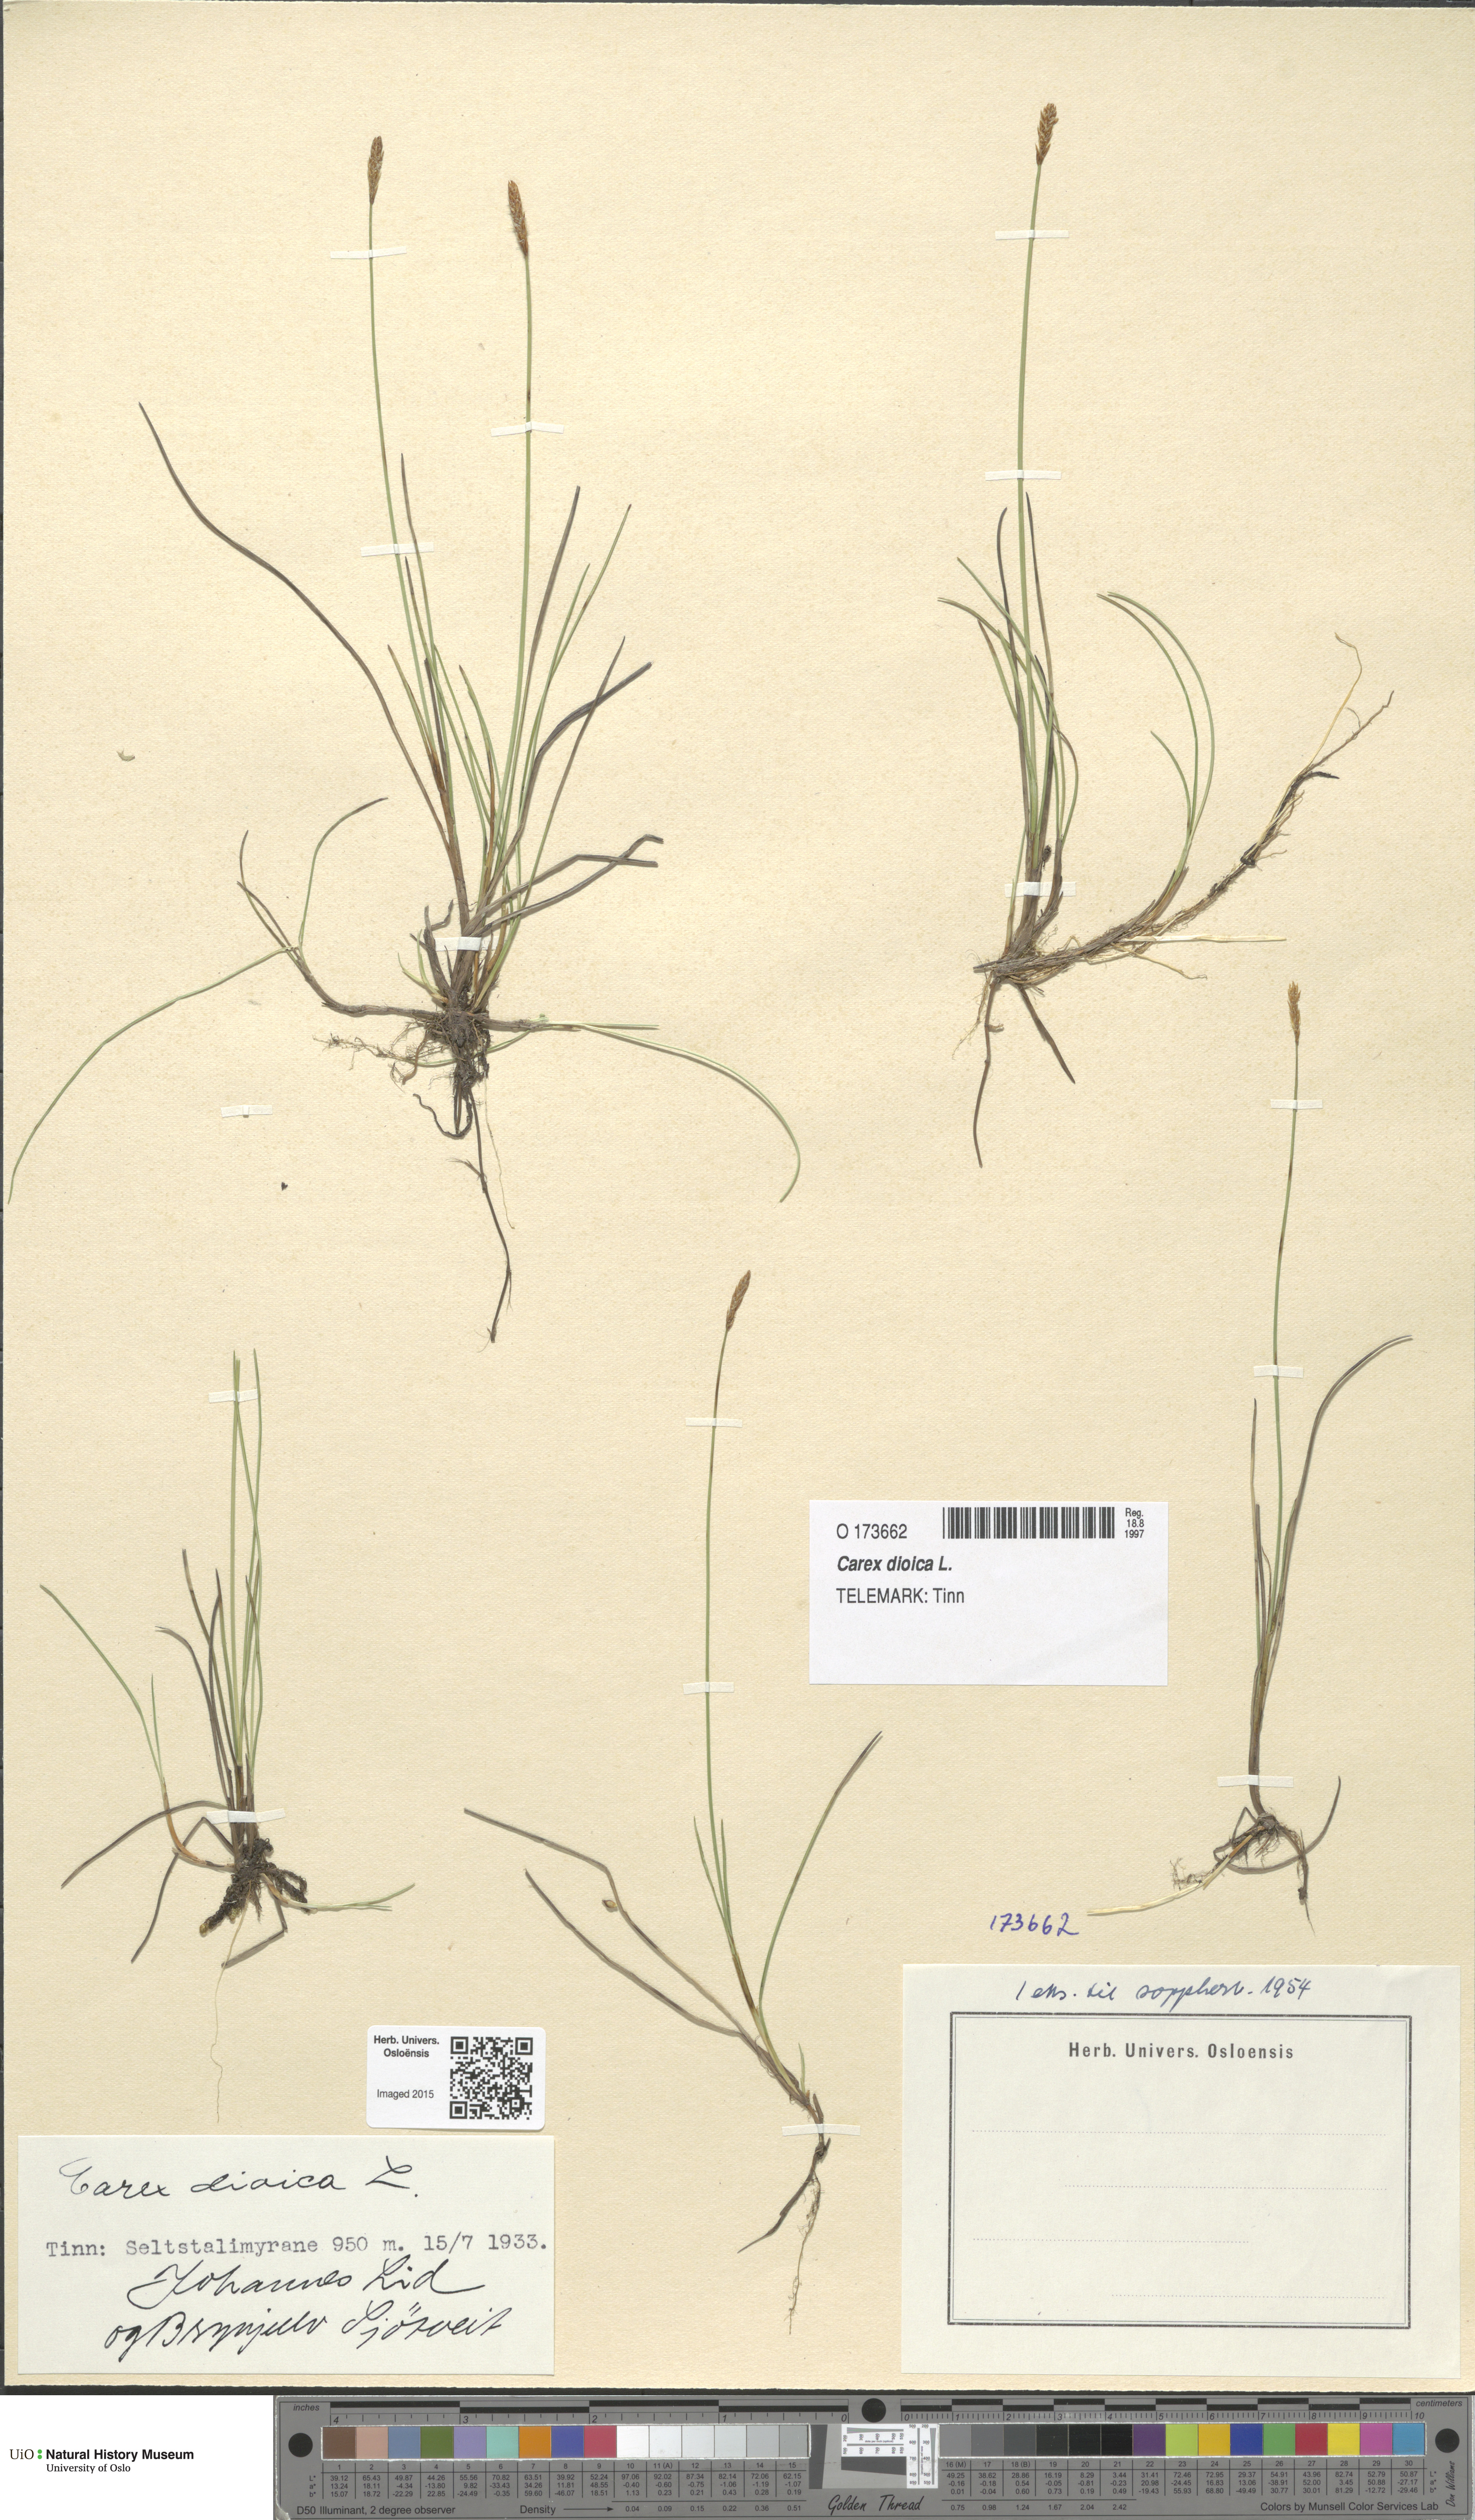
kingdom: Plantae
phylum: Tracheophyta
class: Liliopsida
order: Poales
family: Cyperaceae
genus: Carex
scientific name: Carex dioica
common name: Dioecious sedge
